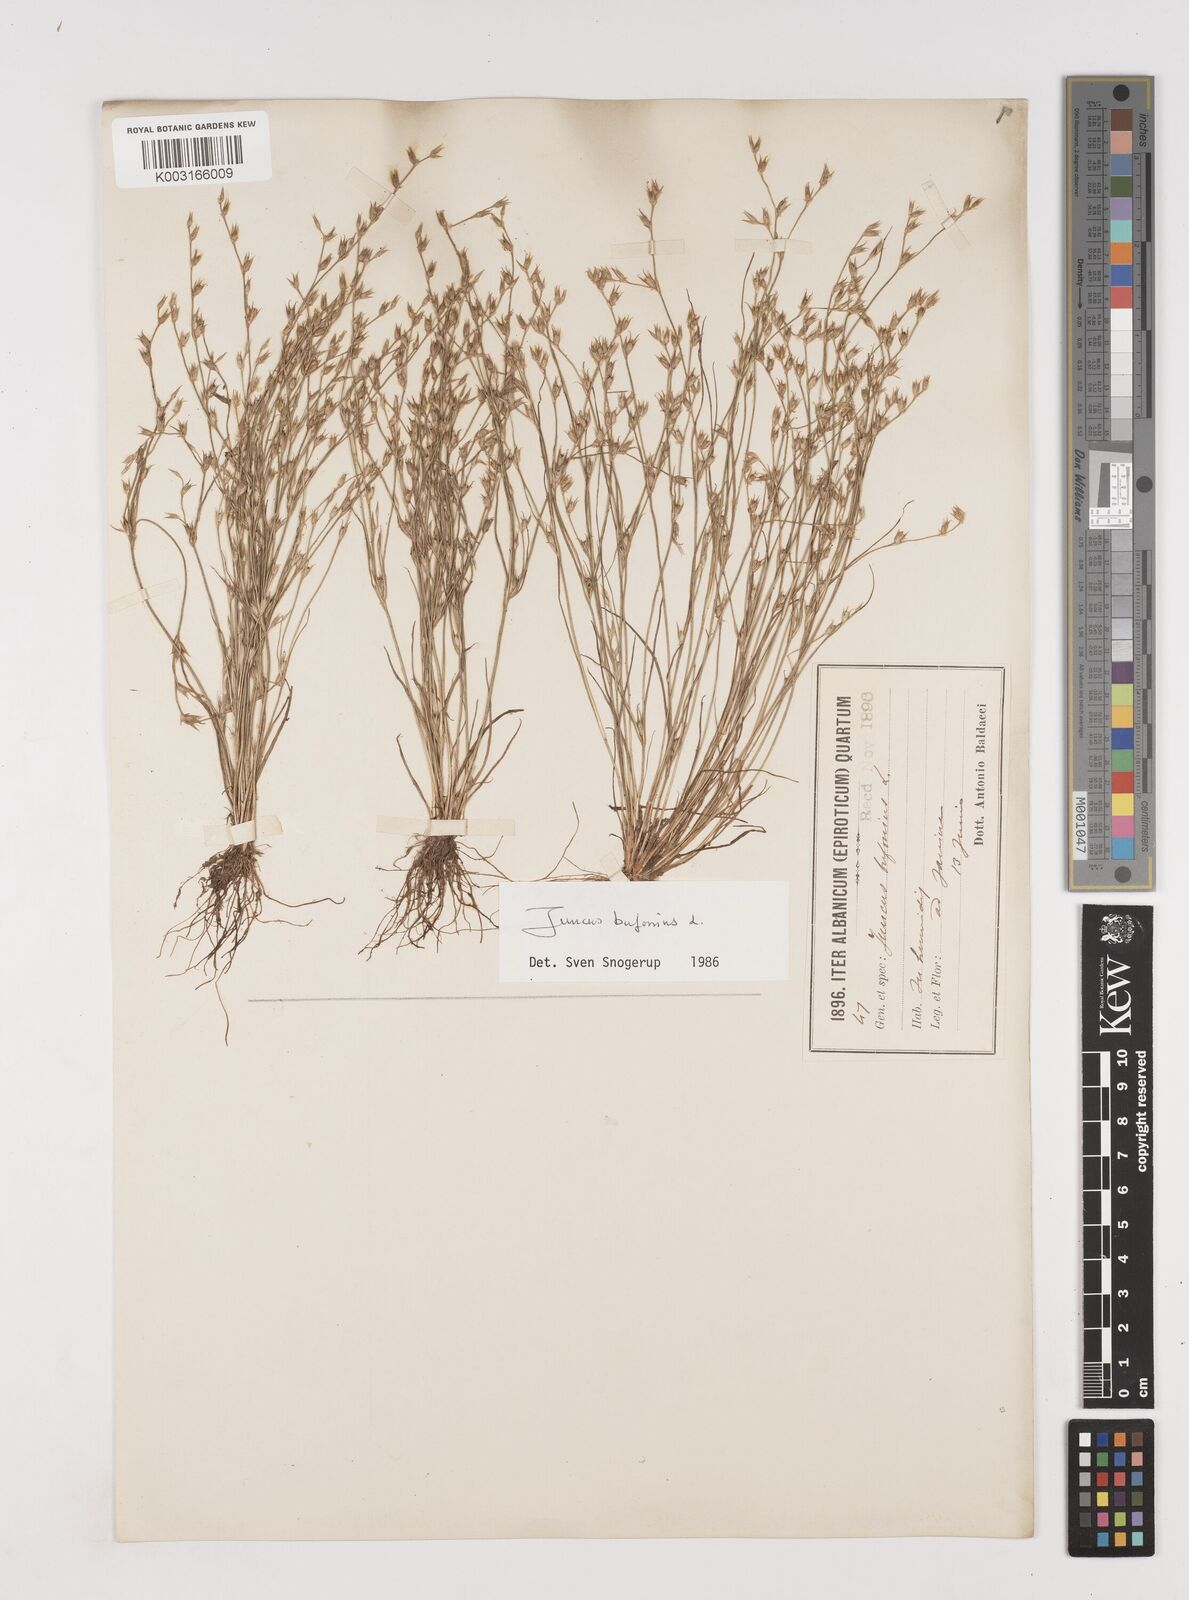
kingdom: Plantae
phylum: Tracheophyta
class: Liliopsida
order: Poales
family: Juncaceae
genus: Juncus
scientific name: Juncus bufonius
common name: Toad rush
